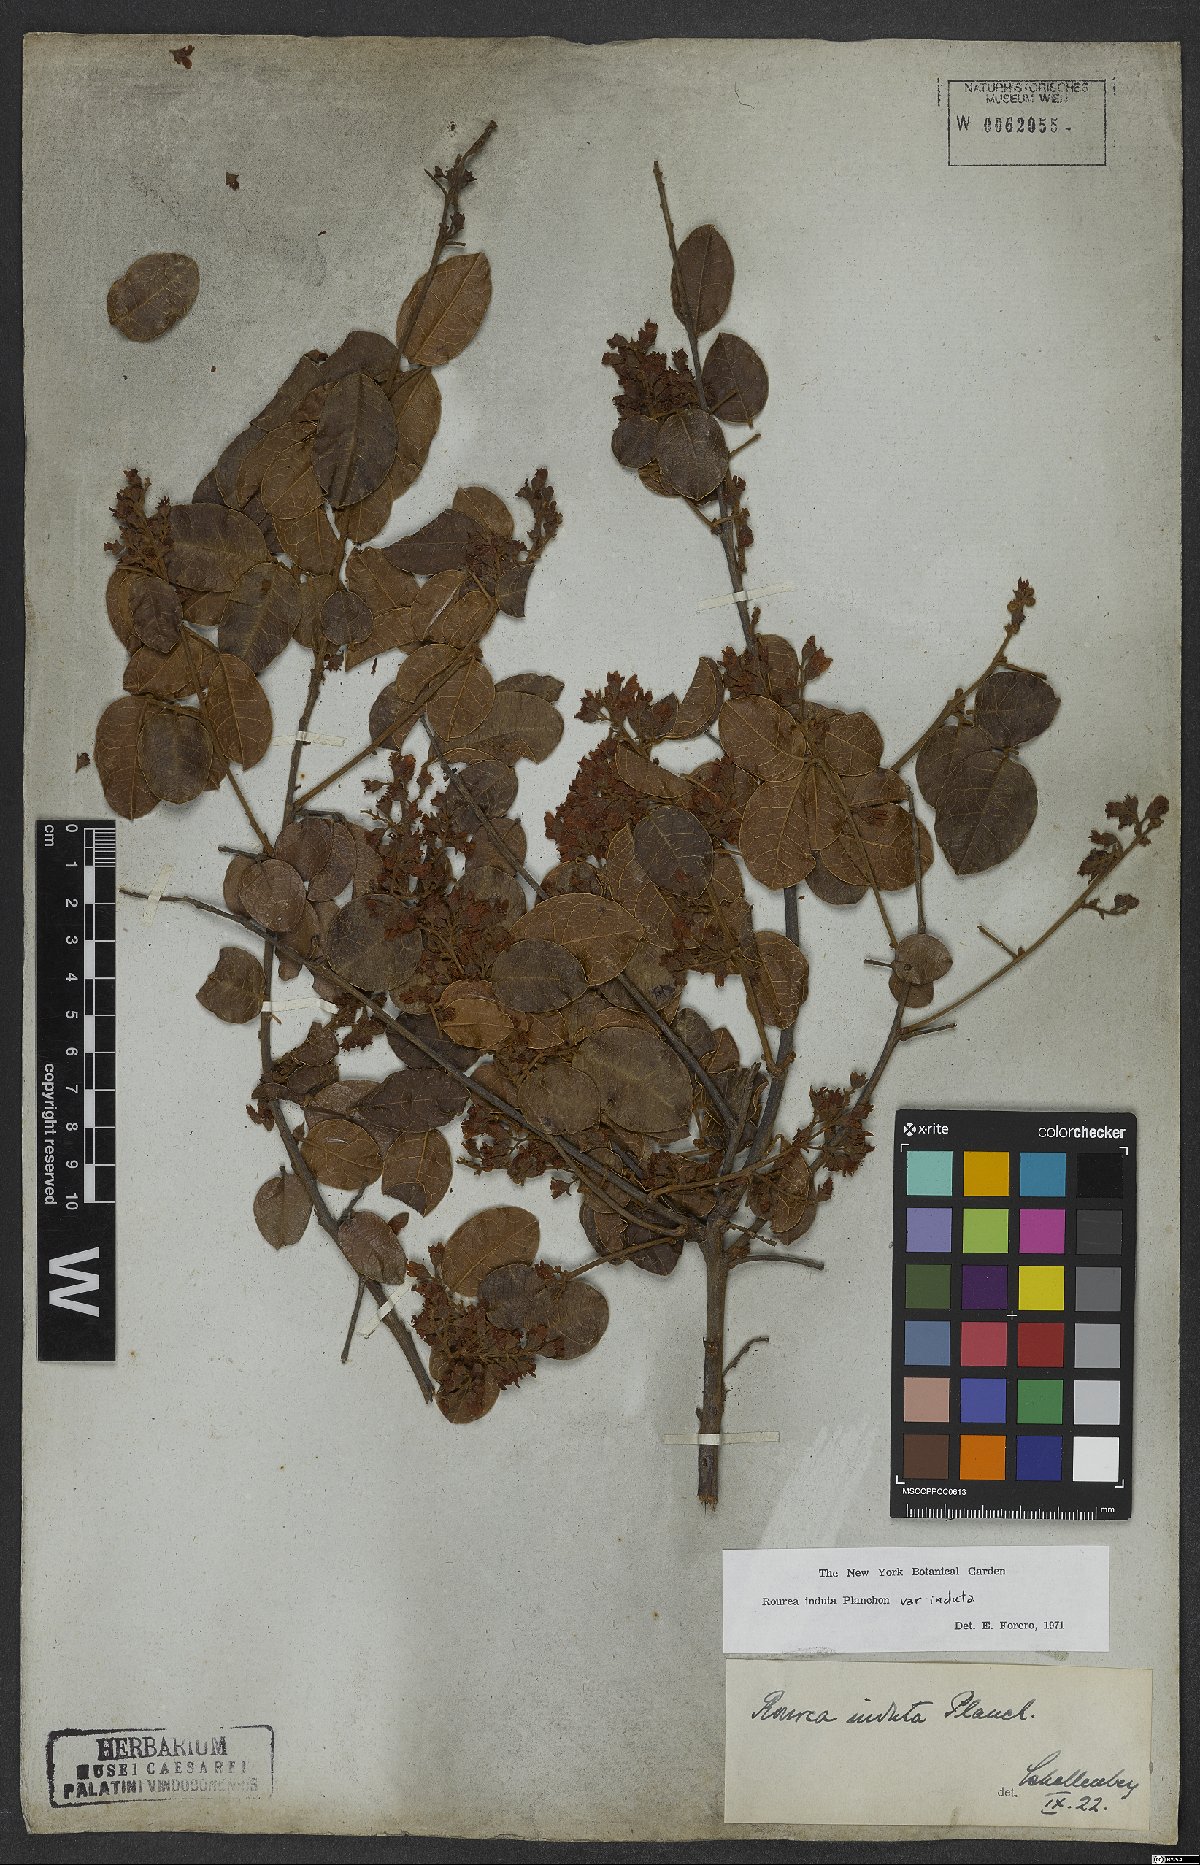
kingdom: Plantae
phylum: Tracheophyta
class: Magnoliopsida
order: Oxalidales
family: Connaraceae
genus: Rourea
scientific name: Rourea induta
